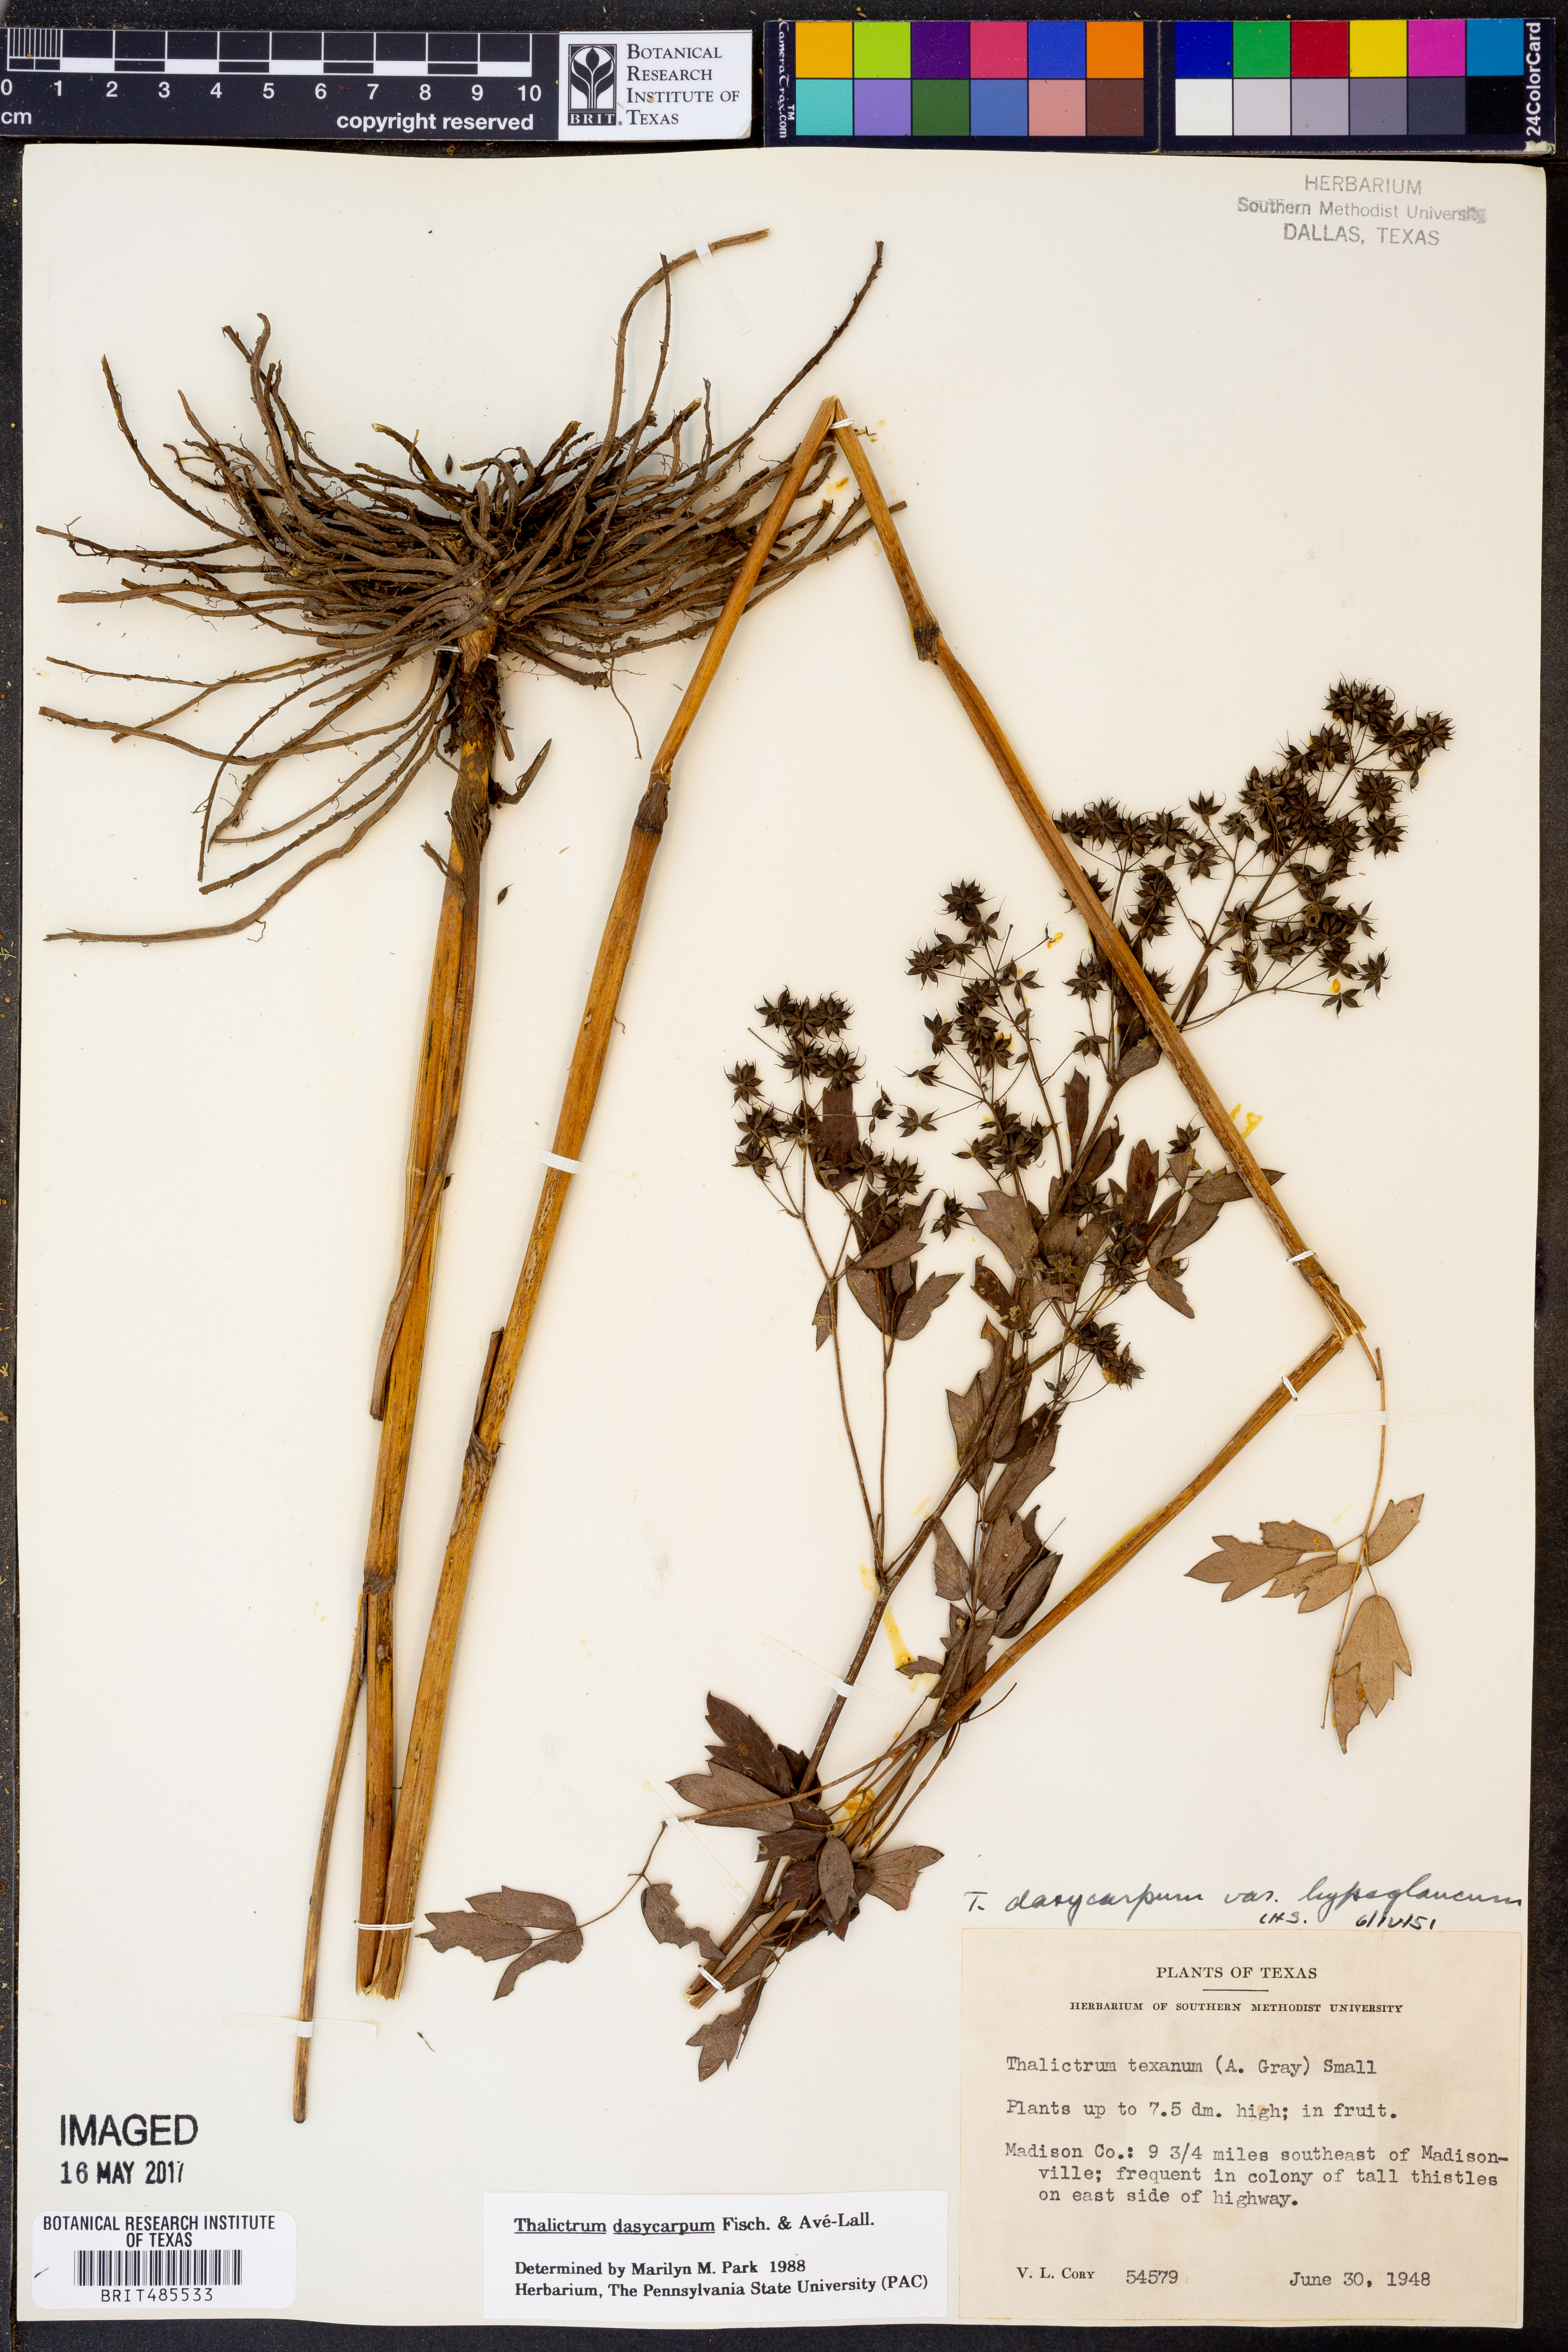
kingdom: Plantae
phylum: Tracheophyta
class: Magnoliopsida
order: Ranunculales
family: Ranunculaceae
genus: Thalictrum
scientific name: Thalictrum dasycarpum
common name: Purple meadow-rue
